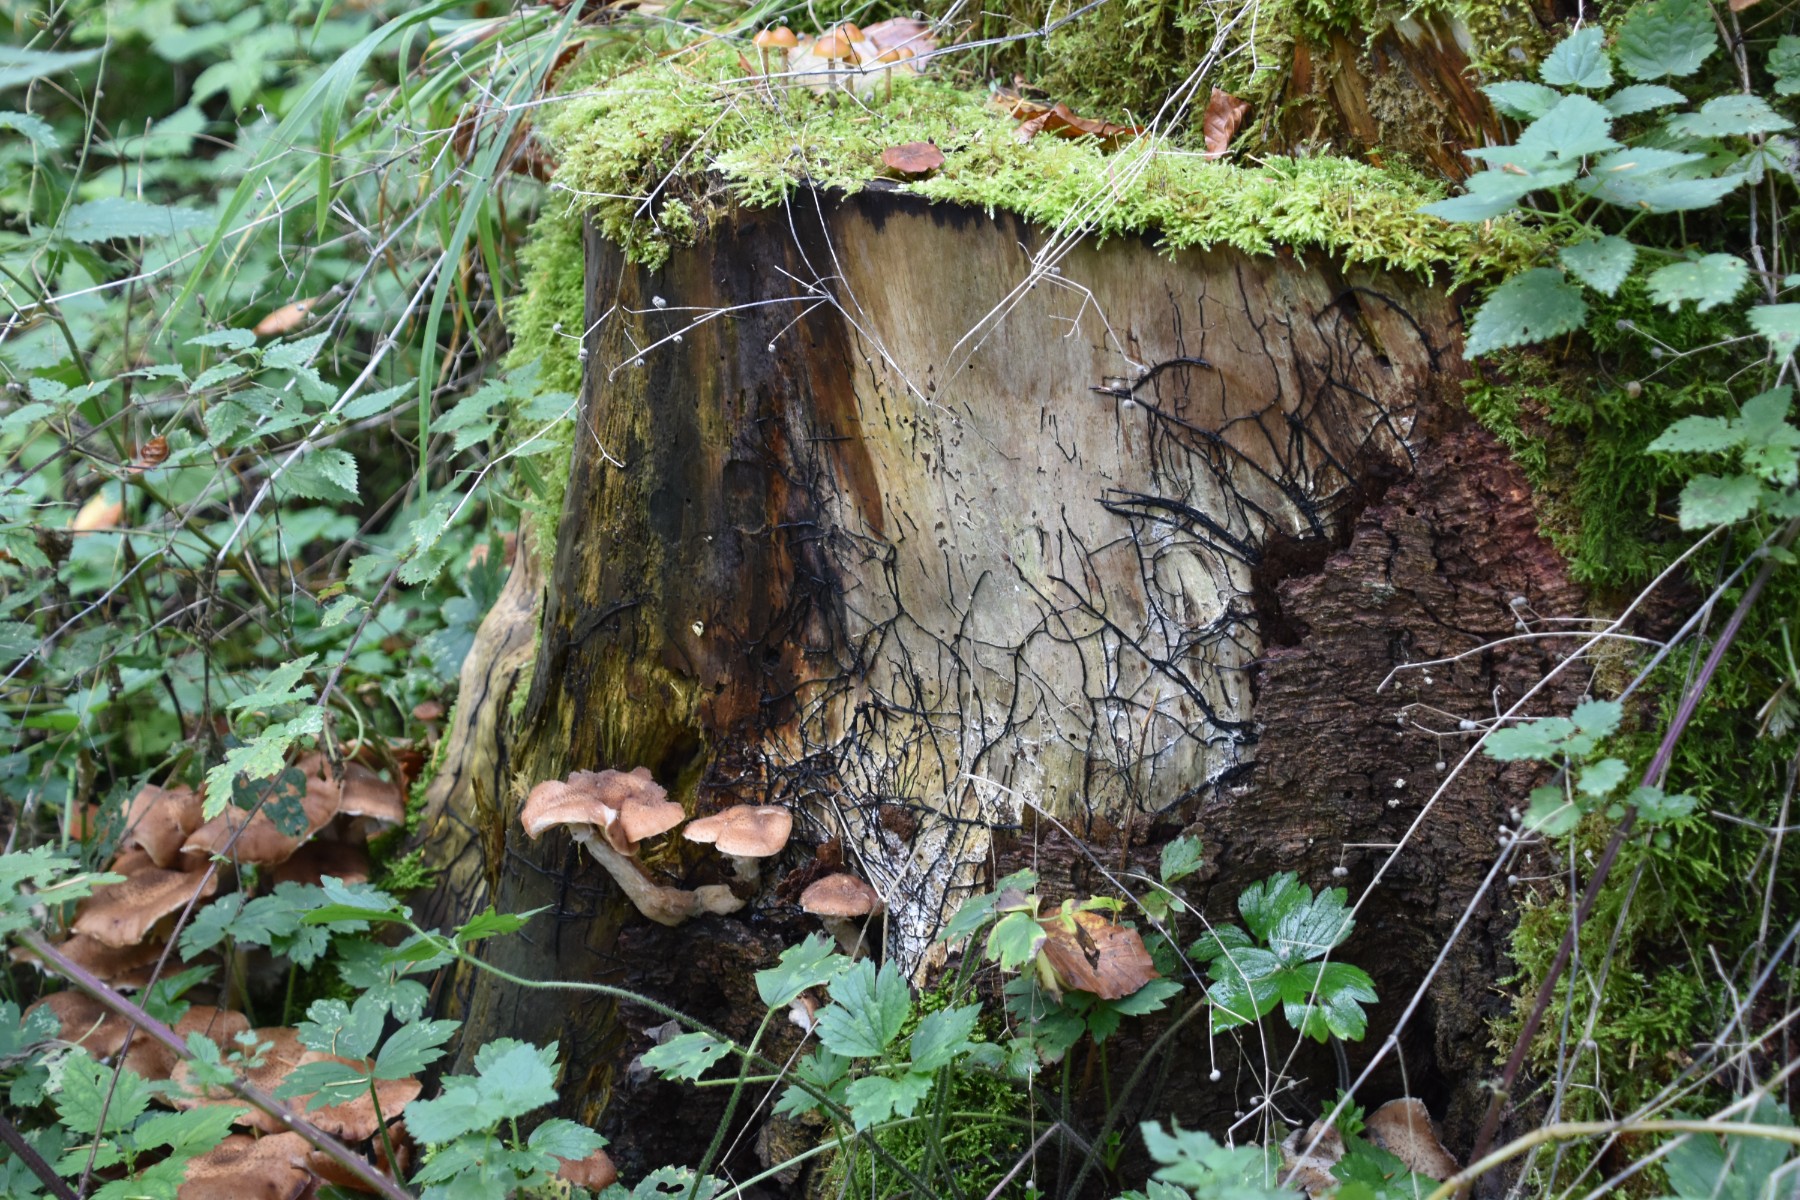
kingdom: Fungi
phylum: Basidiomycota
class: Agaricomycetes
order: Agaricales
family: Physalacriaceae
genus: Armillaria
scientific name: Armillaria
